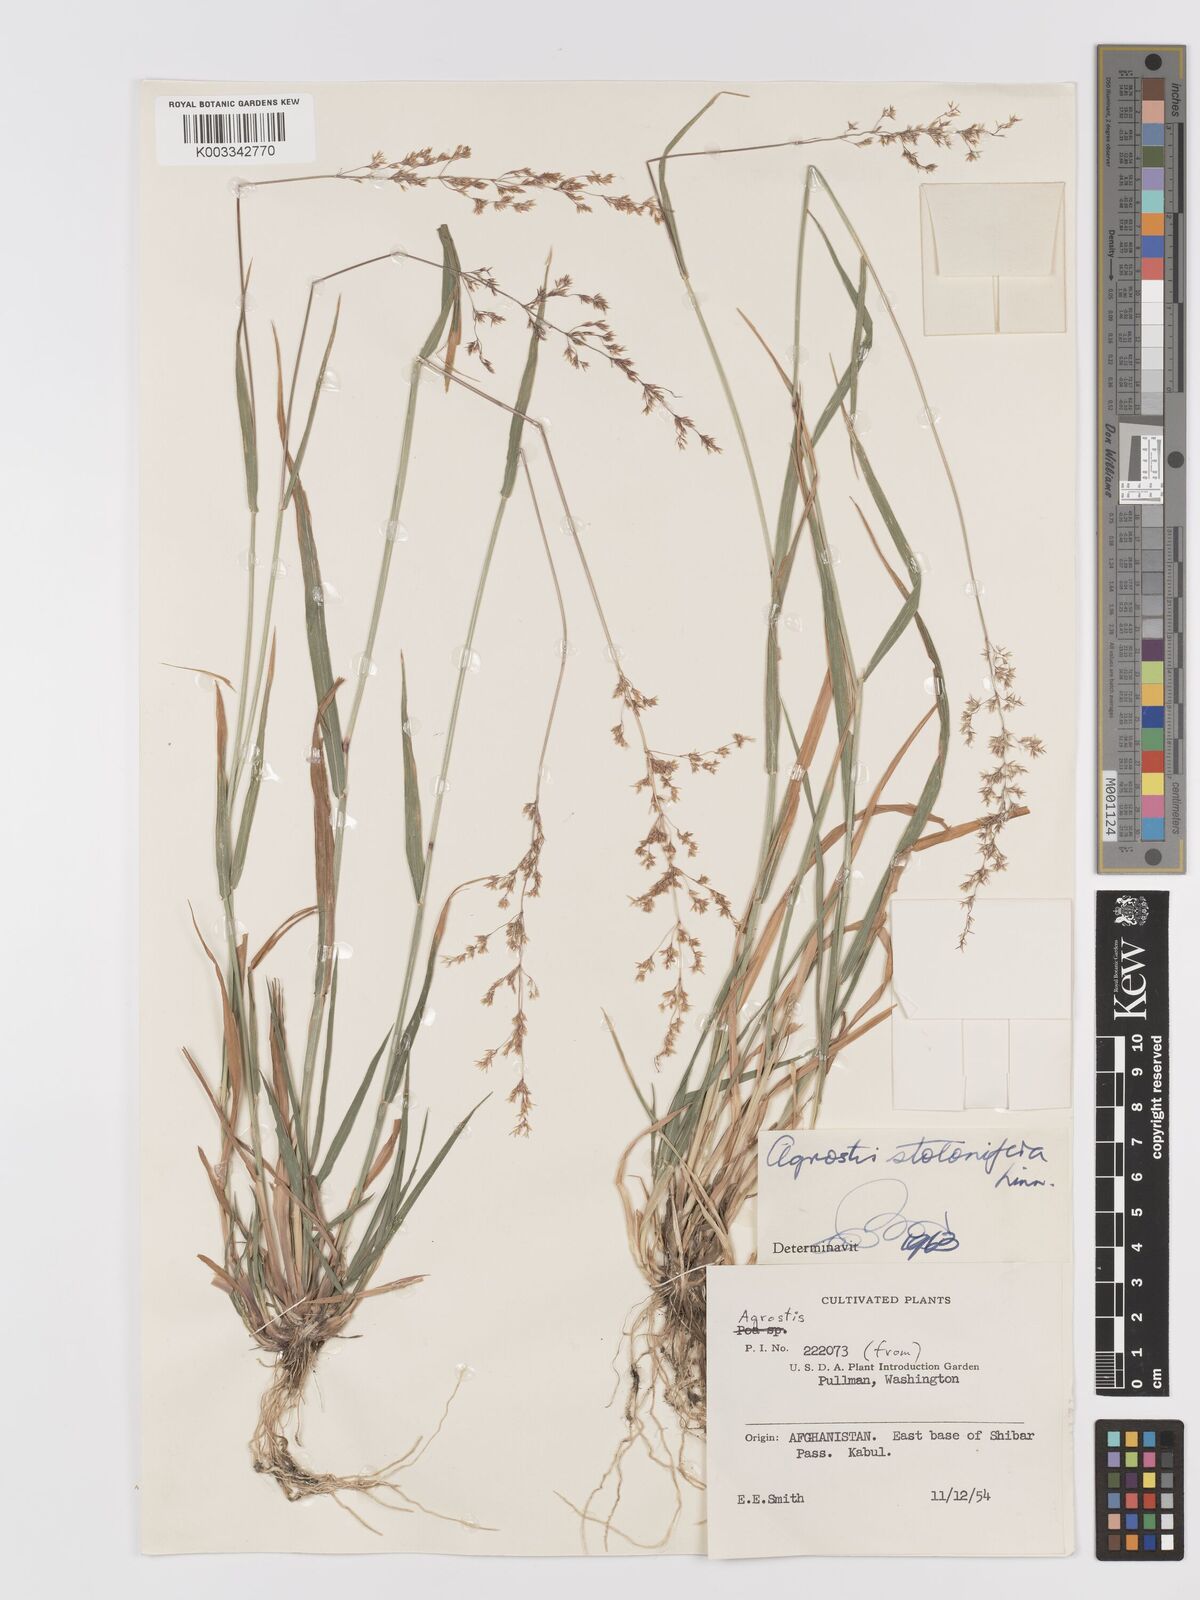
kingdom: Plantae
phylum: Tracheophyta
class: Liliopsida
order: Poales
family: Poaceae
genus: Agrostis
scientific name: Agrostis stolonifera
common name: Creeping bentgrass
